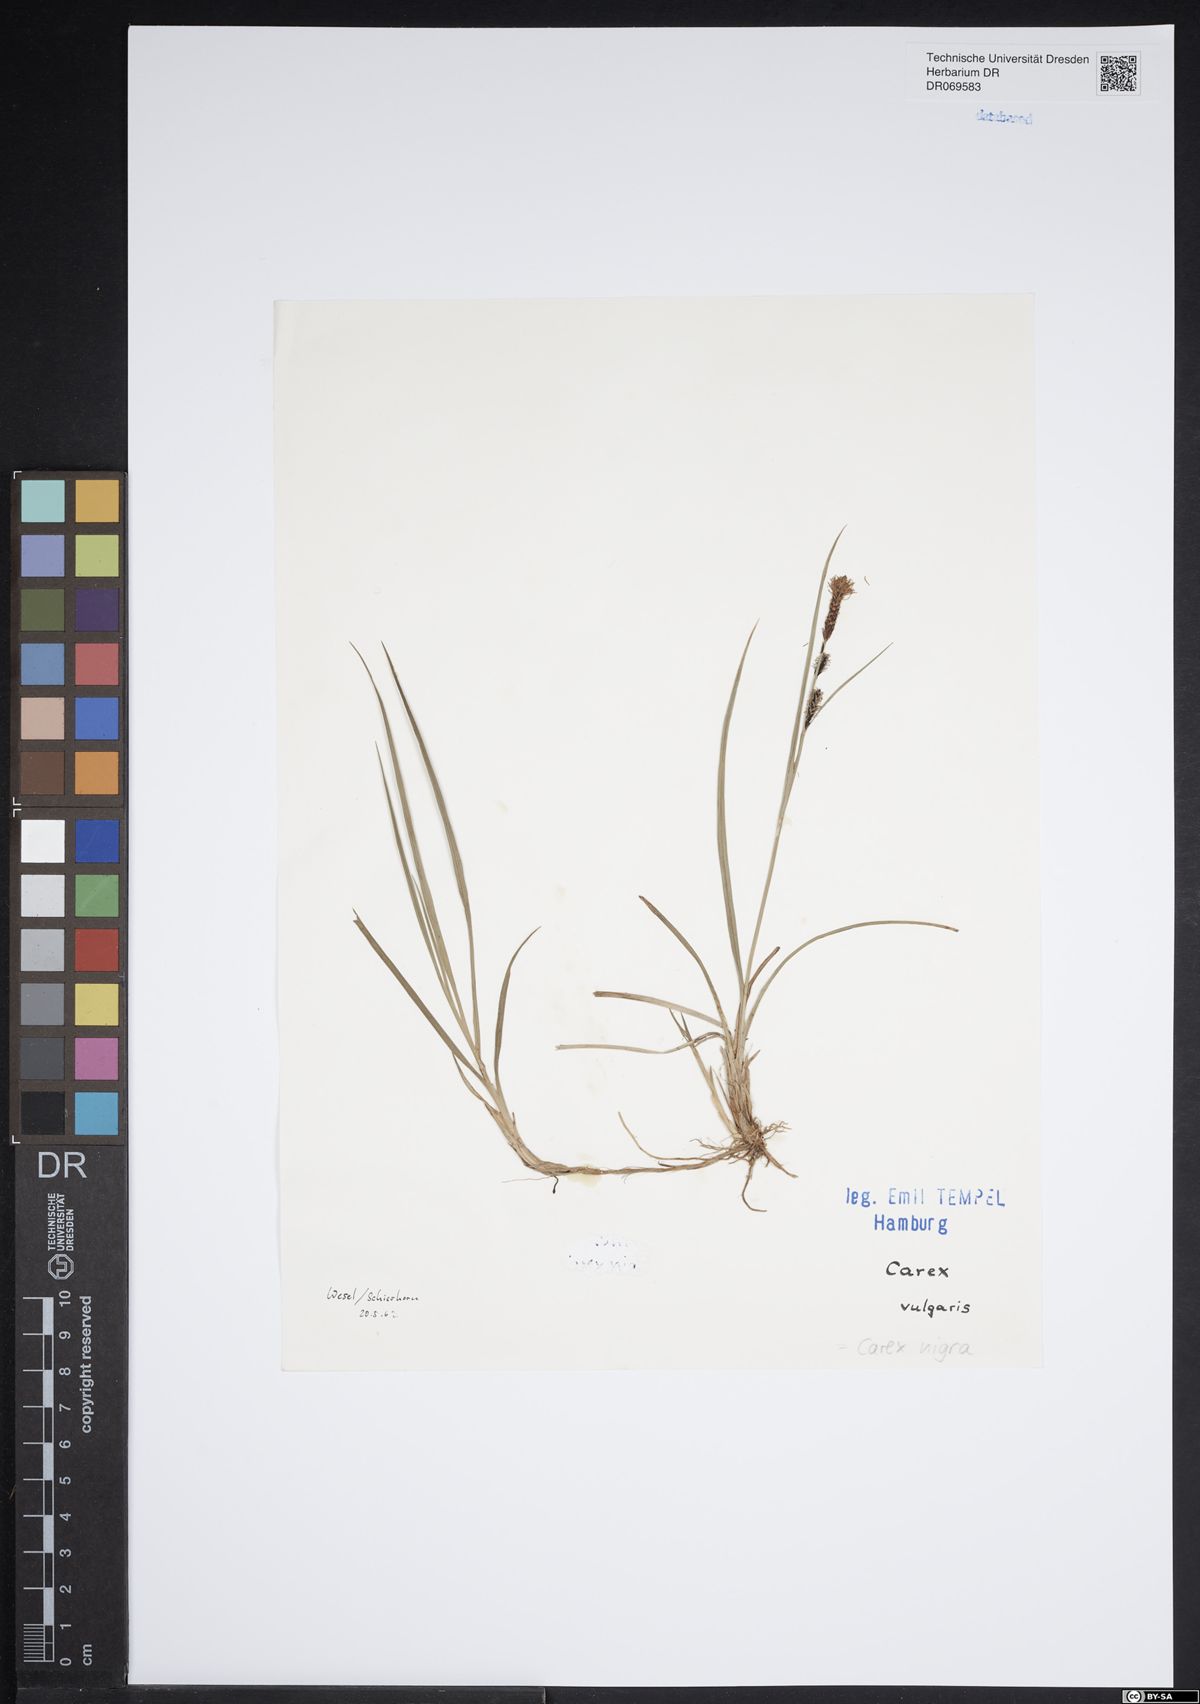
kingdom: Plantae
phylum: Tracheophyta
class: Liliopsida
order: Poales
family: Cyperaceae
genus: Carex
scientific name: Carex nigra
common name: Common sedge
